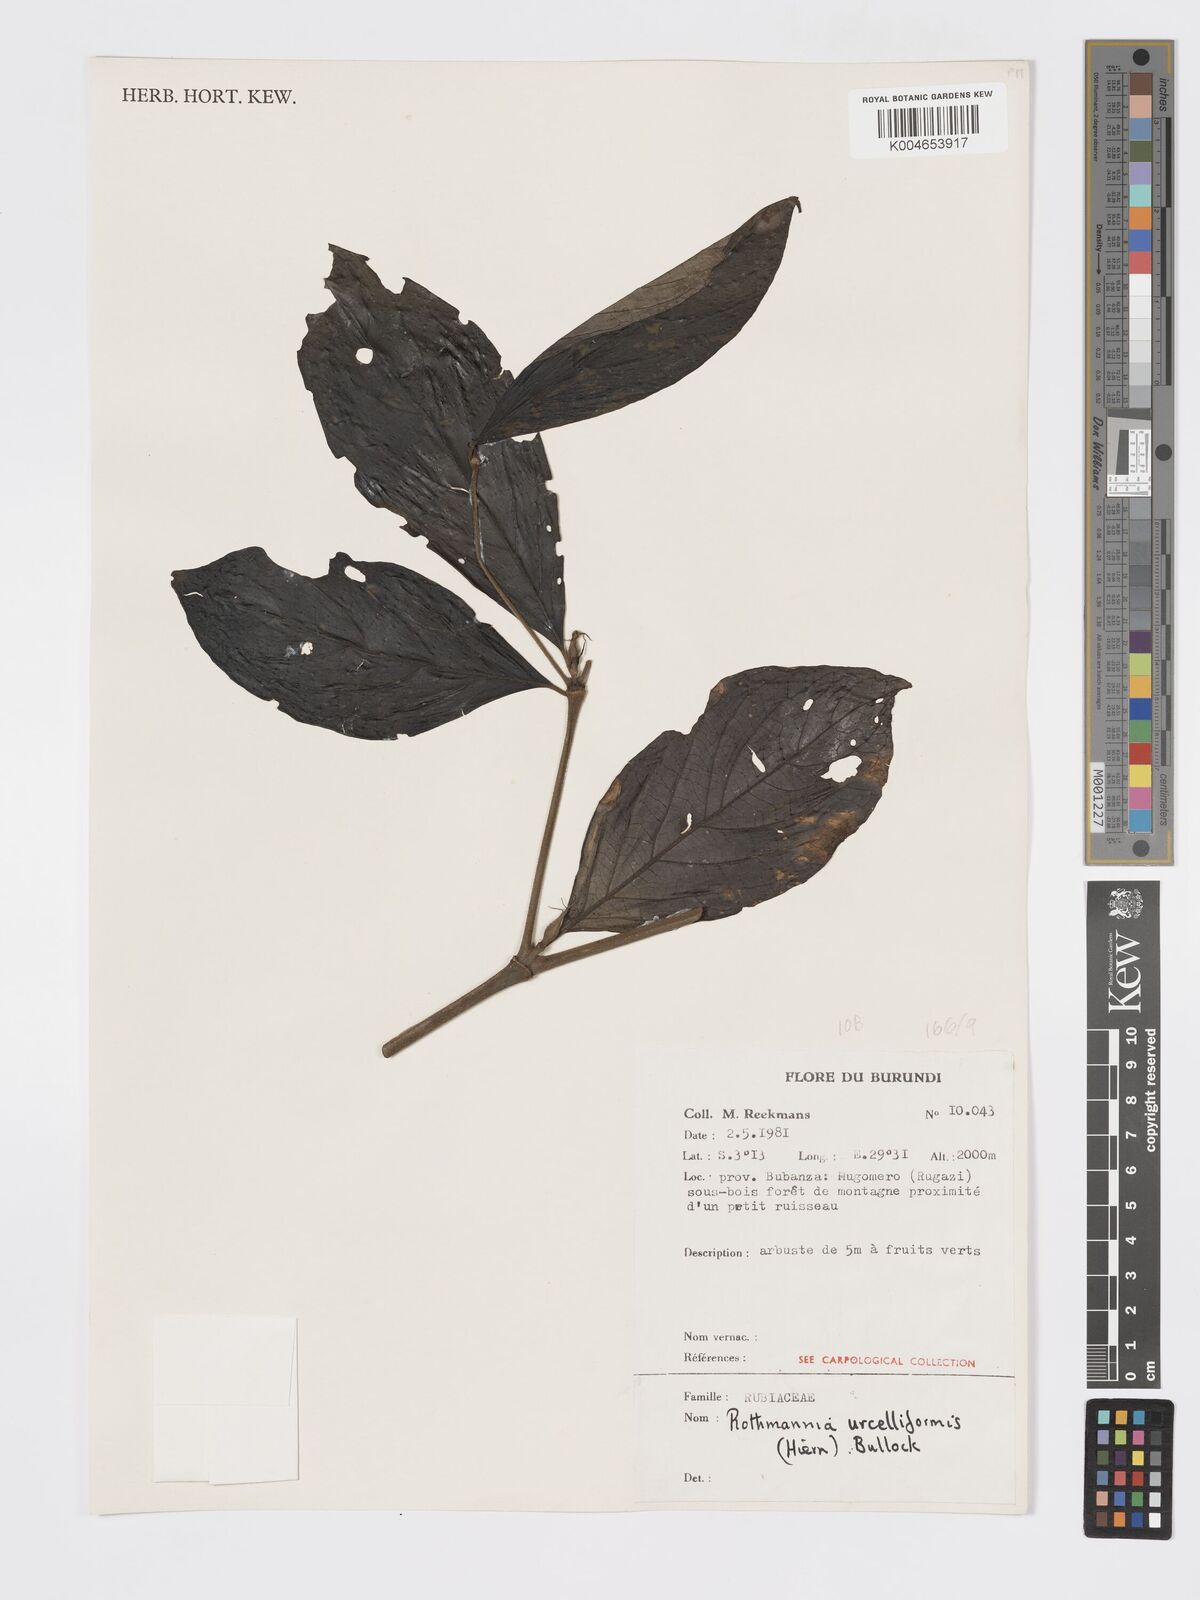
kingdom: Plantae
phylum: Tracheophyta
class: Magnoliopsida
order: Gentianales
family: Rubiaceae
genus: Rothmannia
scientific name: Rothmannia urcelliformis
